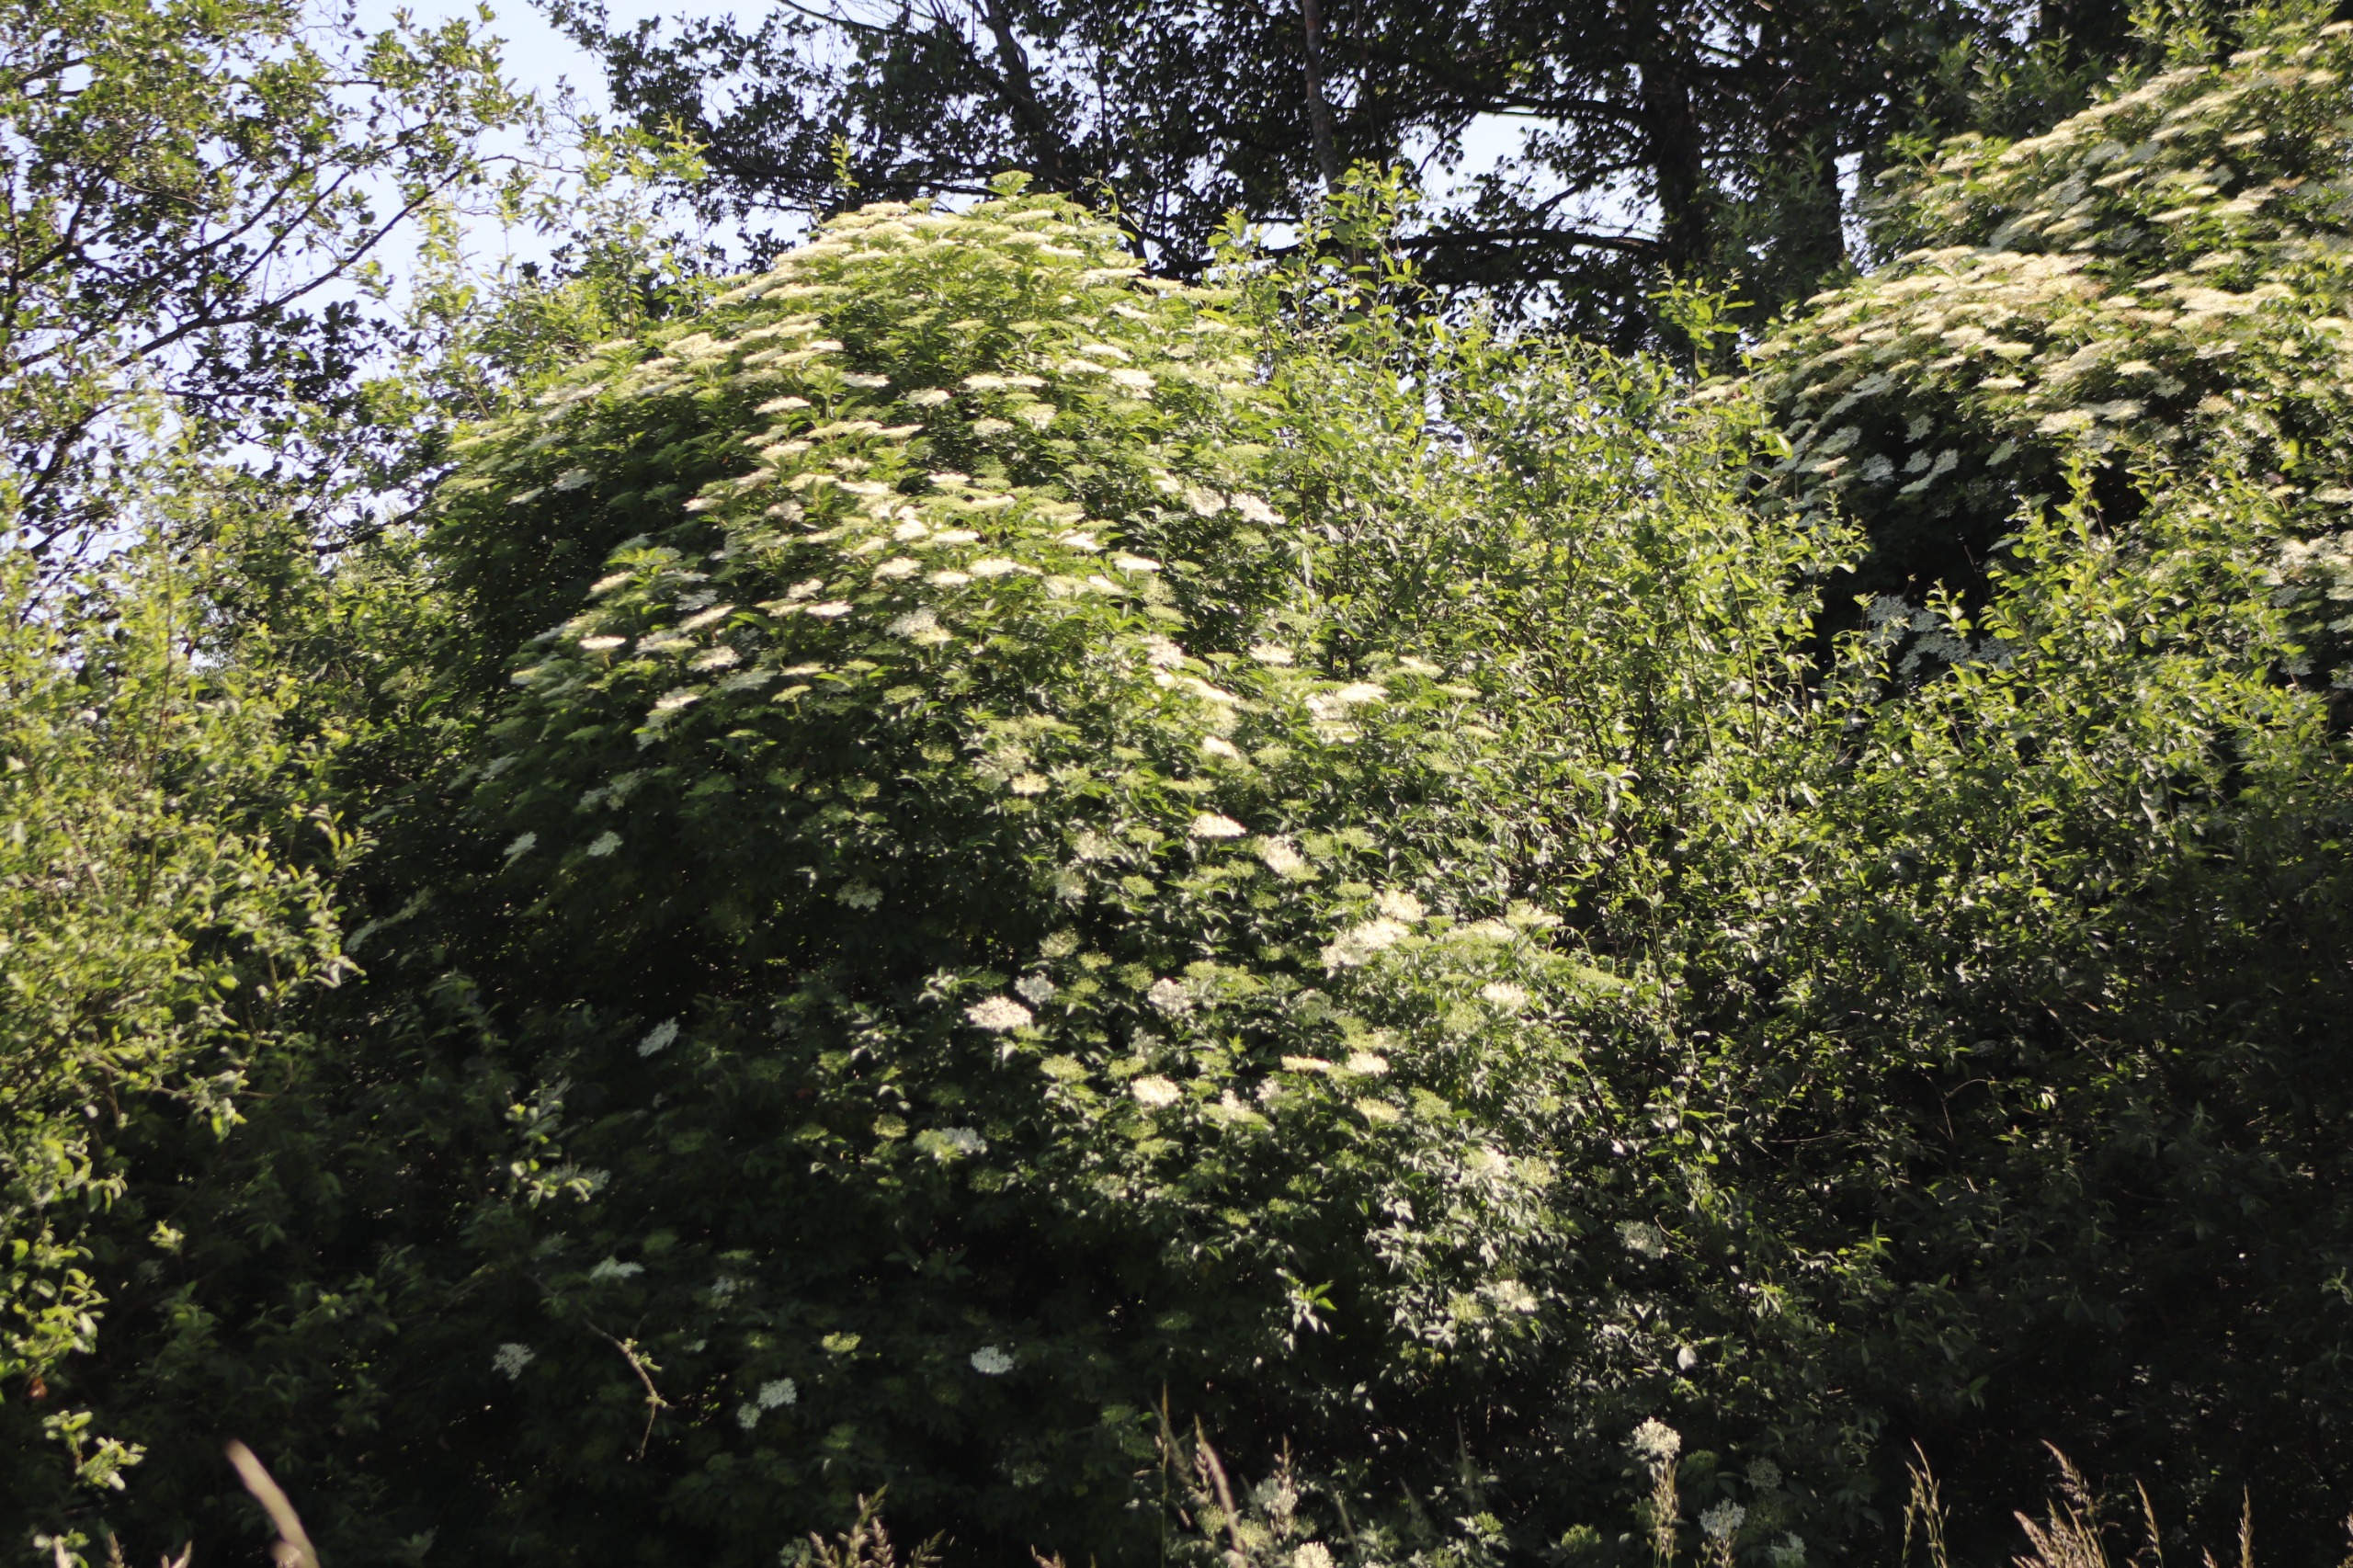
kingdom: Plantae
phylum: Tracheophyta
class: Magnoliopsida
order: Dipsacales
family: Viburnaceae
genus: Sambucus
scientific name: Sambucus nigra
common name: Almindelig hyld
